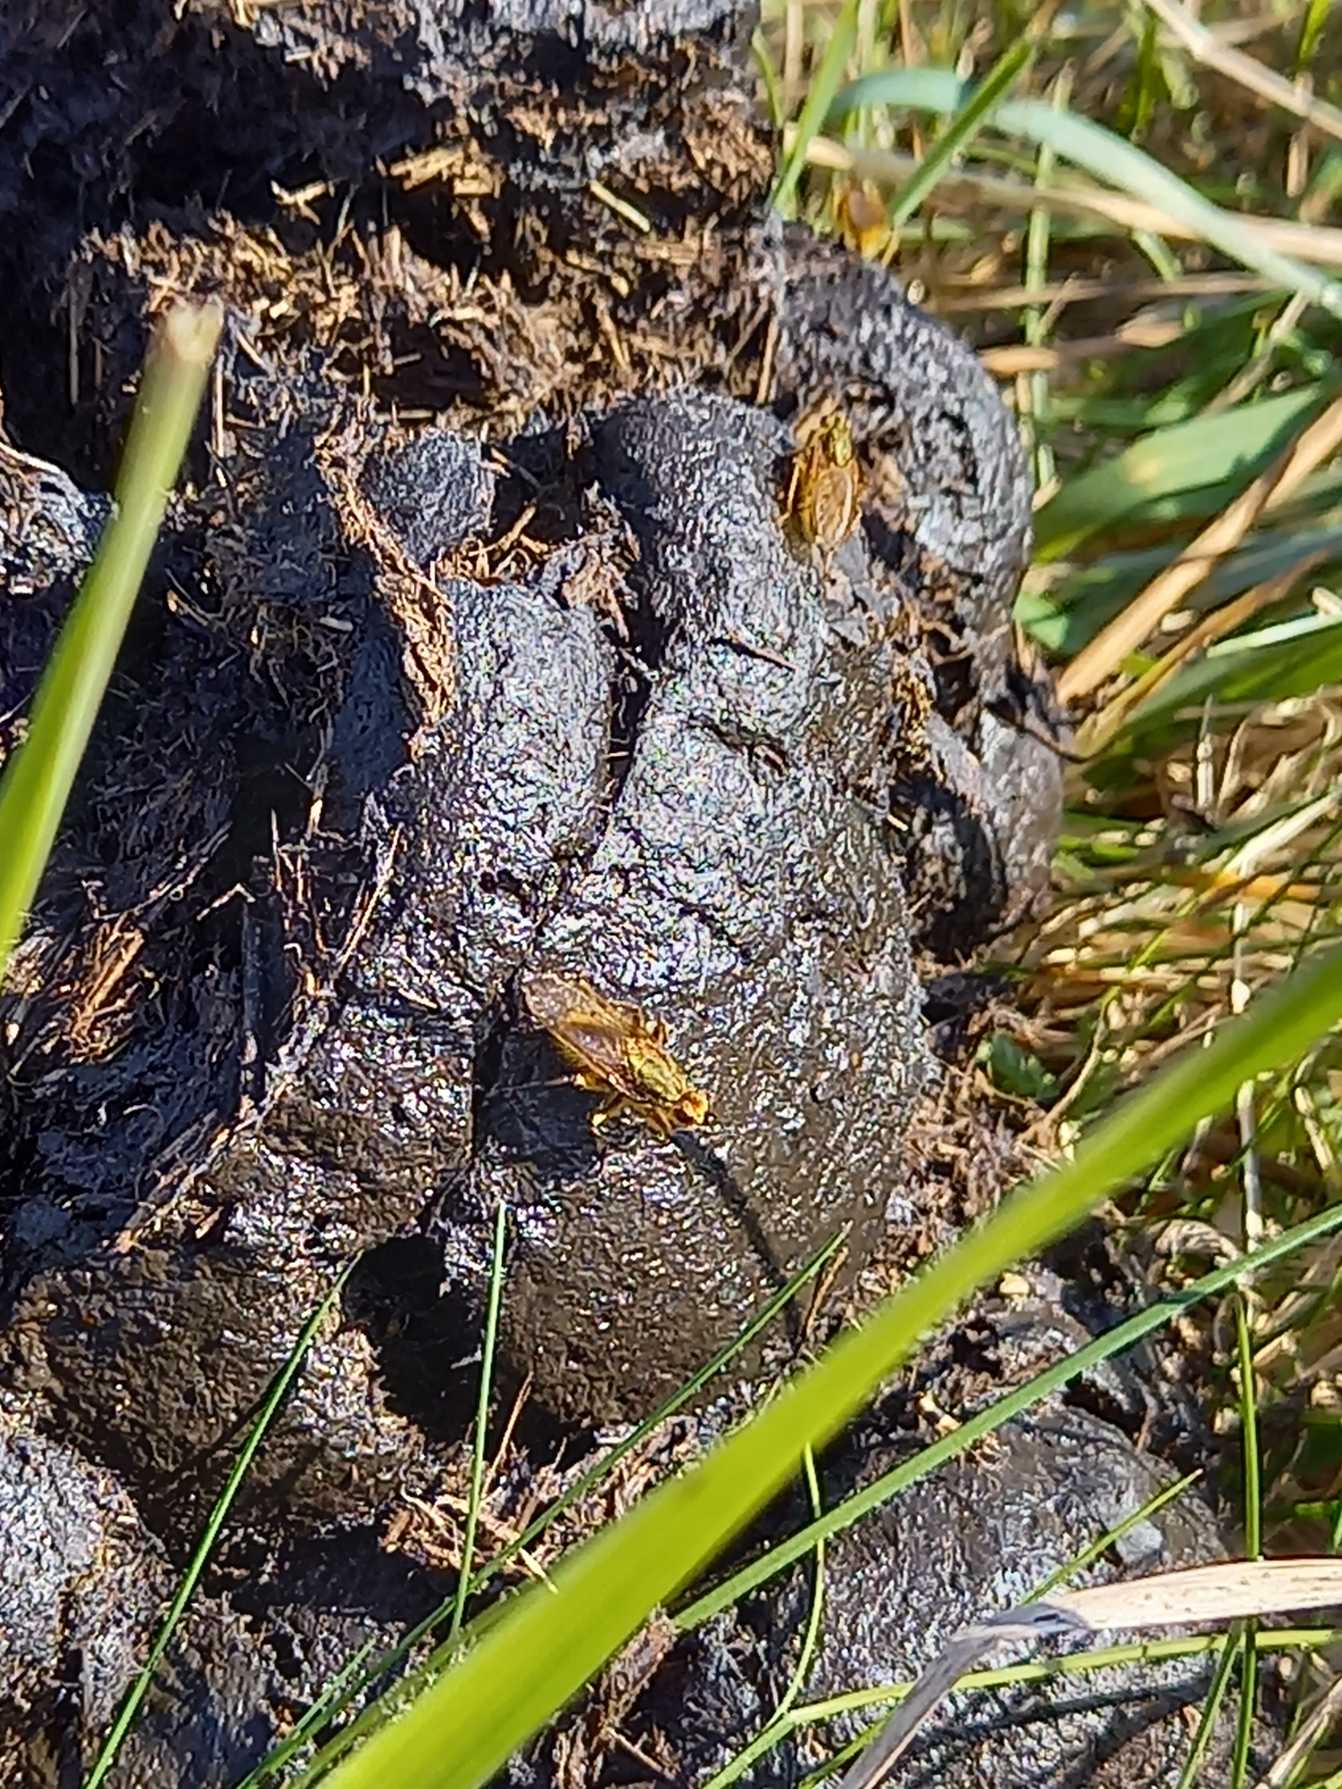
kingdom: Animalia
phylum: Arthropoda
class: Insecta
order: Diptera
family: Scathophagidae
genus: Scathophaga
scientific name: Scathophaga stercoraria
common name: Almindelig gødningsflue
